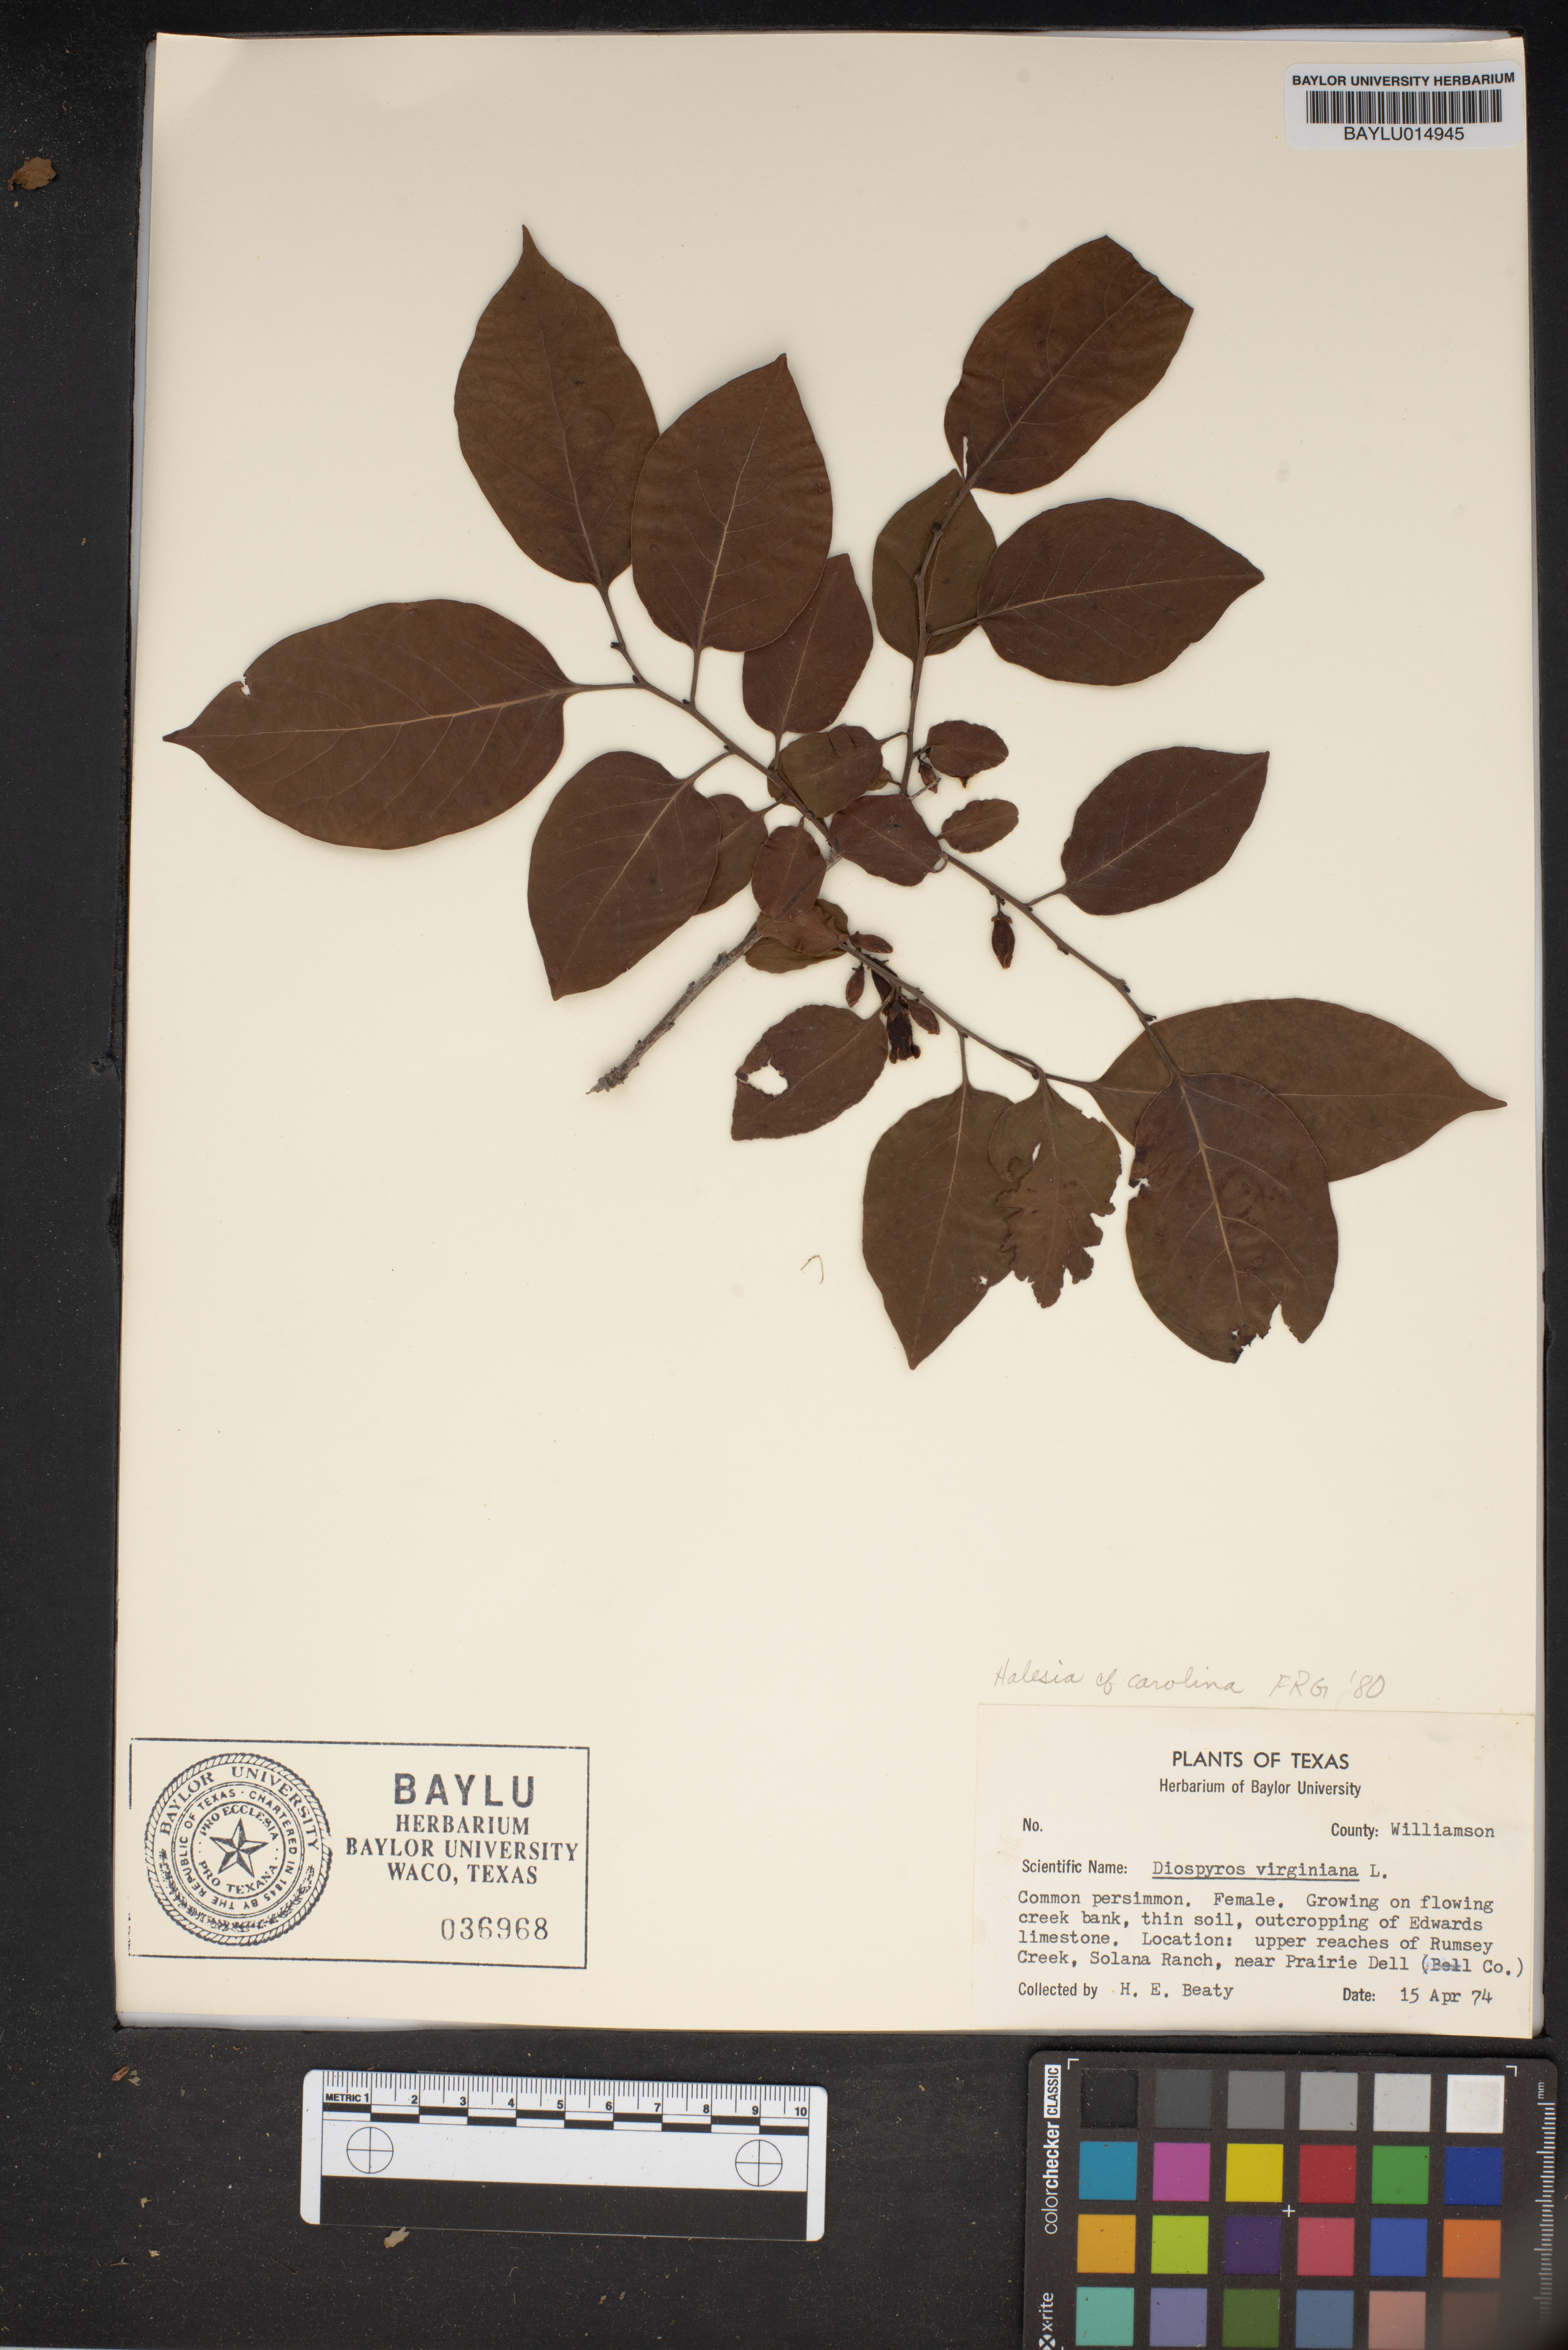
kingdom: Plantae
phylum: Tracheophyta
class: Magnoliopsida
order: Ericales
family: Ebenaceae
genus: Diospyros
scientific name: Diospyros virginiana
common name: Persimmon
